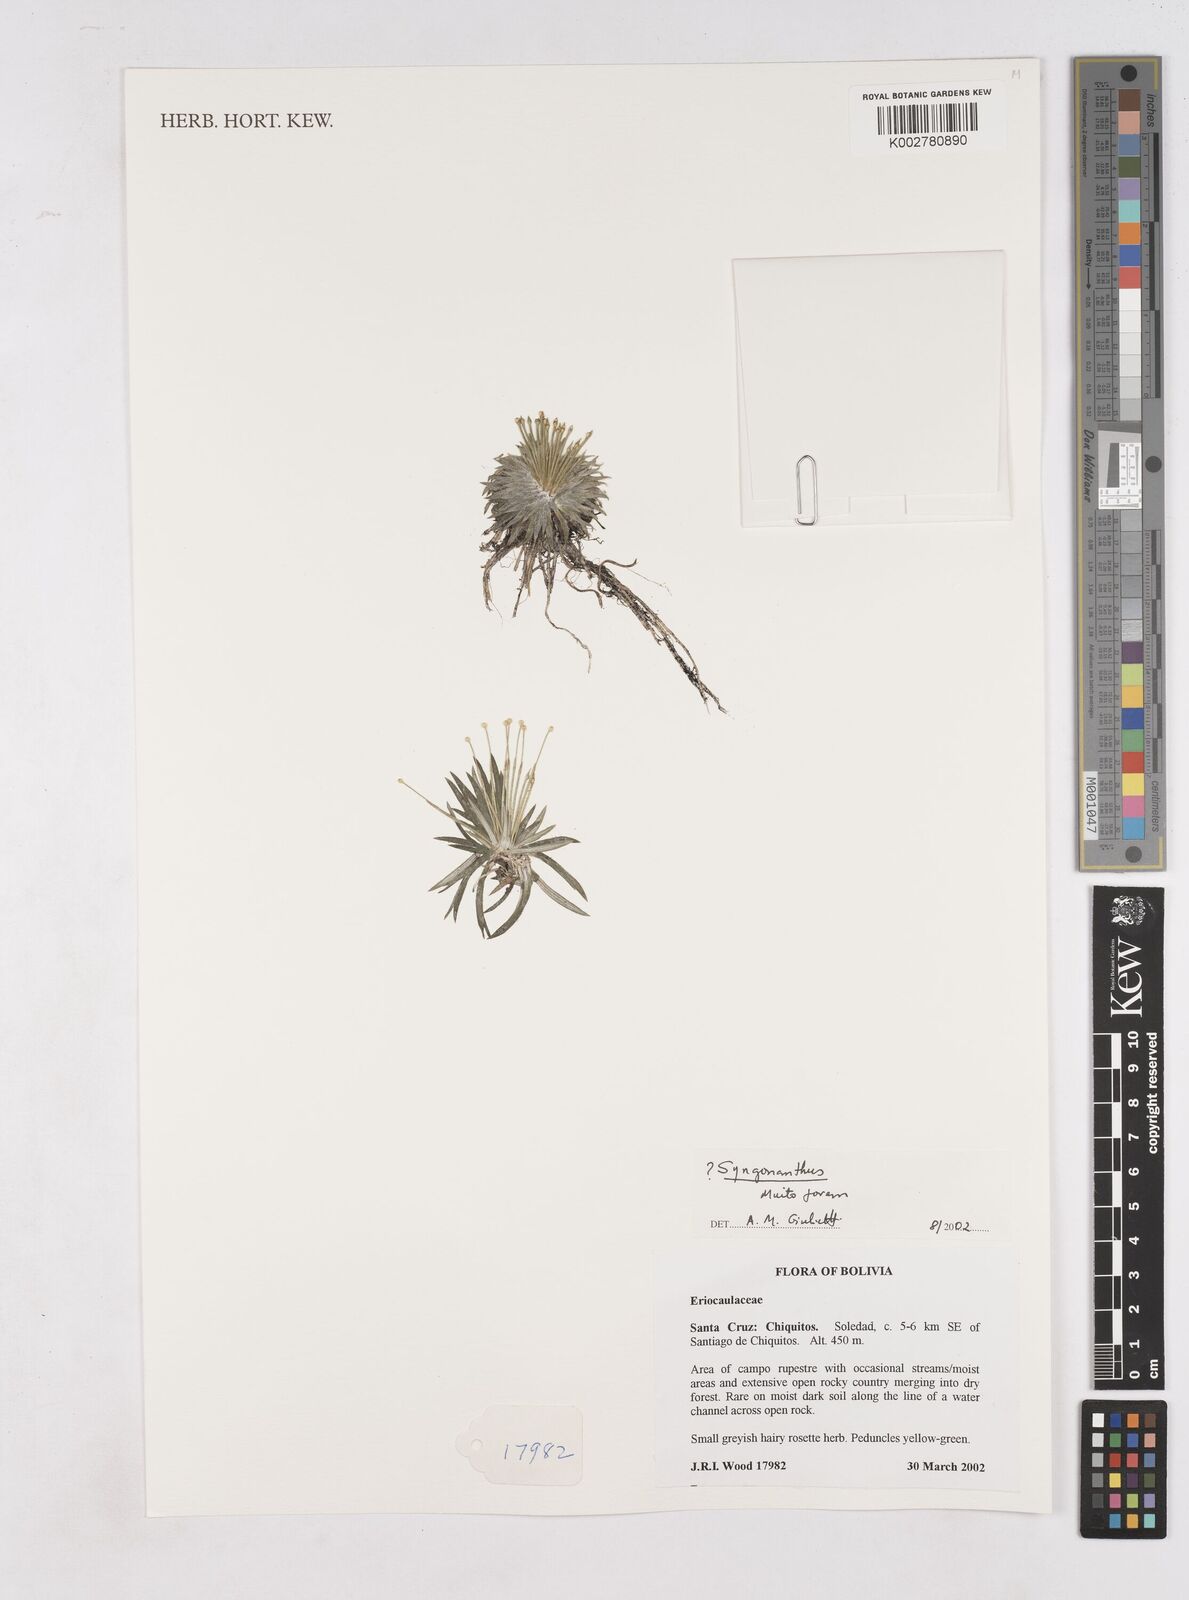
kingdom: Plantae
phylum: Tracheophyta
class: Liliopsida
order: Poales
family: Eriocaulaceae
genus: Paepalanthus
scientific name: Paepalanthus
